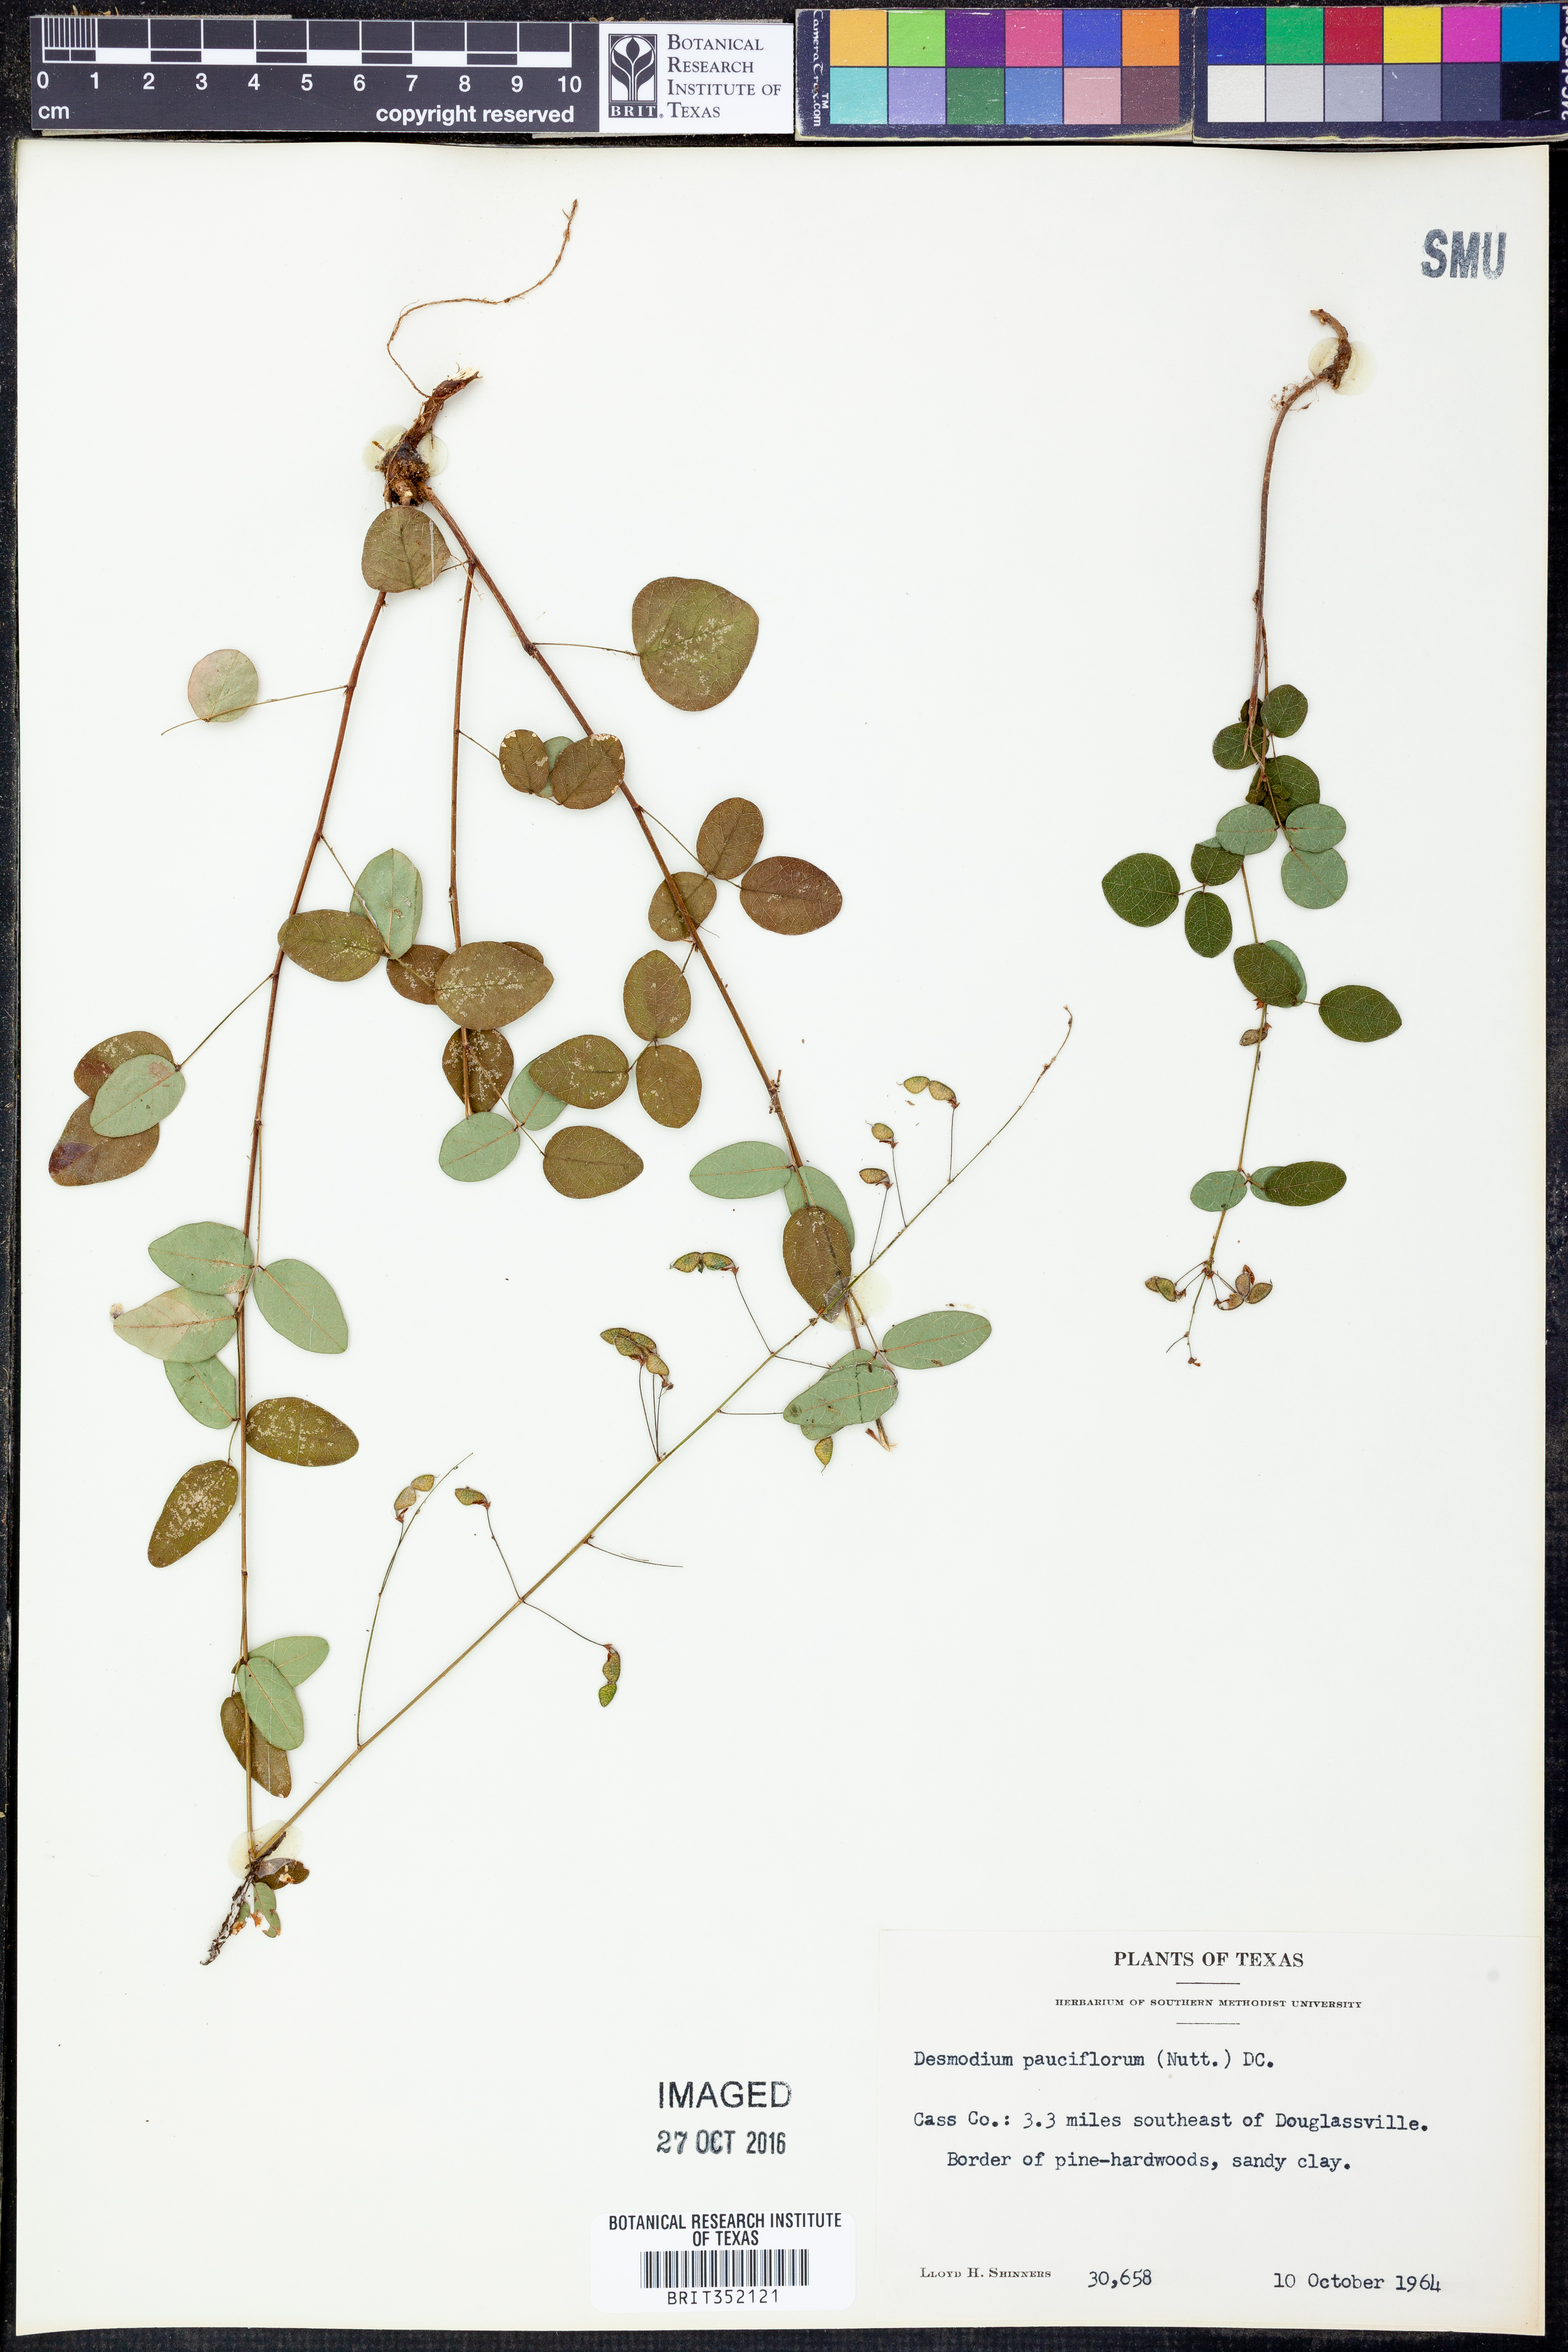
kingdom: Plantae
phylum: Tracheophyta
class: Magnoliopsida
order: Fabales
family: Fabaceae
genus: Hylodesmum
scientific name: Hylodesmum pauciflorum
